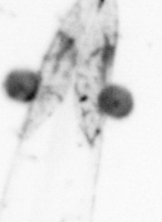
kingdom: Animalia
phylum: Chaetognatha
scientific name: Chaetognatha
